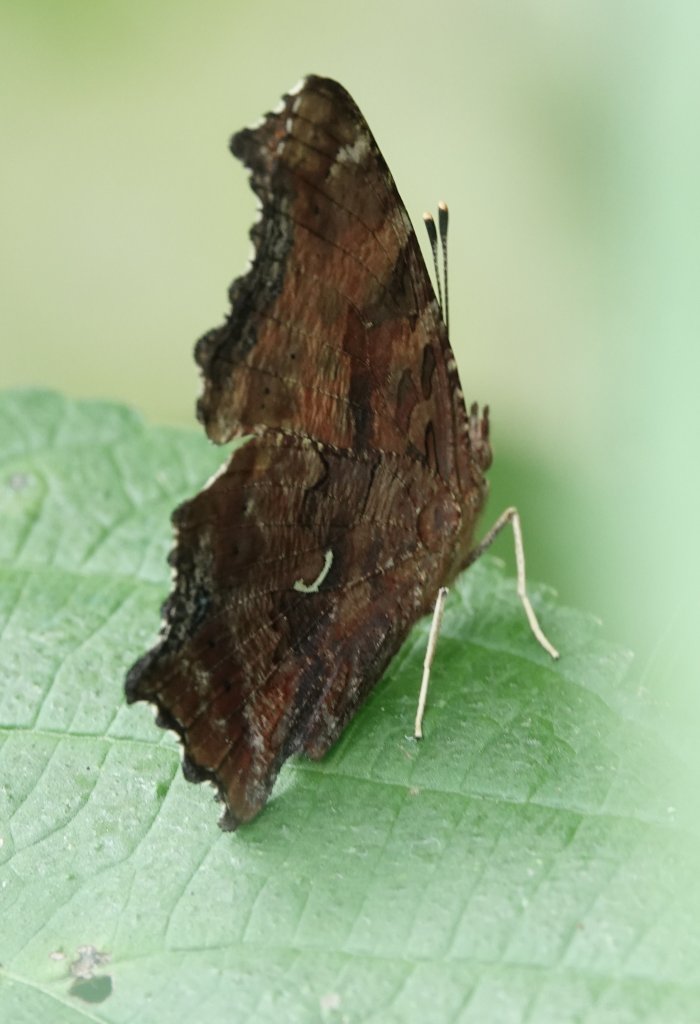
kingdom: Animalia
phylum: Arthropoda
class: Insecta
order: Lepidoptera
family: Nymphalidae
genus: Polygonia
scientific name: Polygonia comma
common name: Eastern Comma
